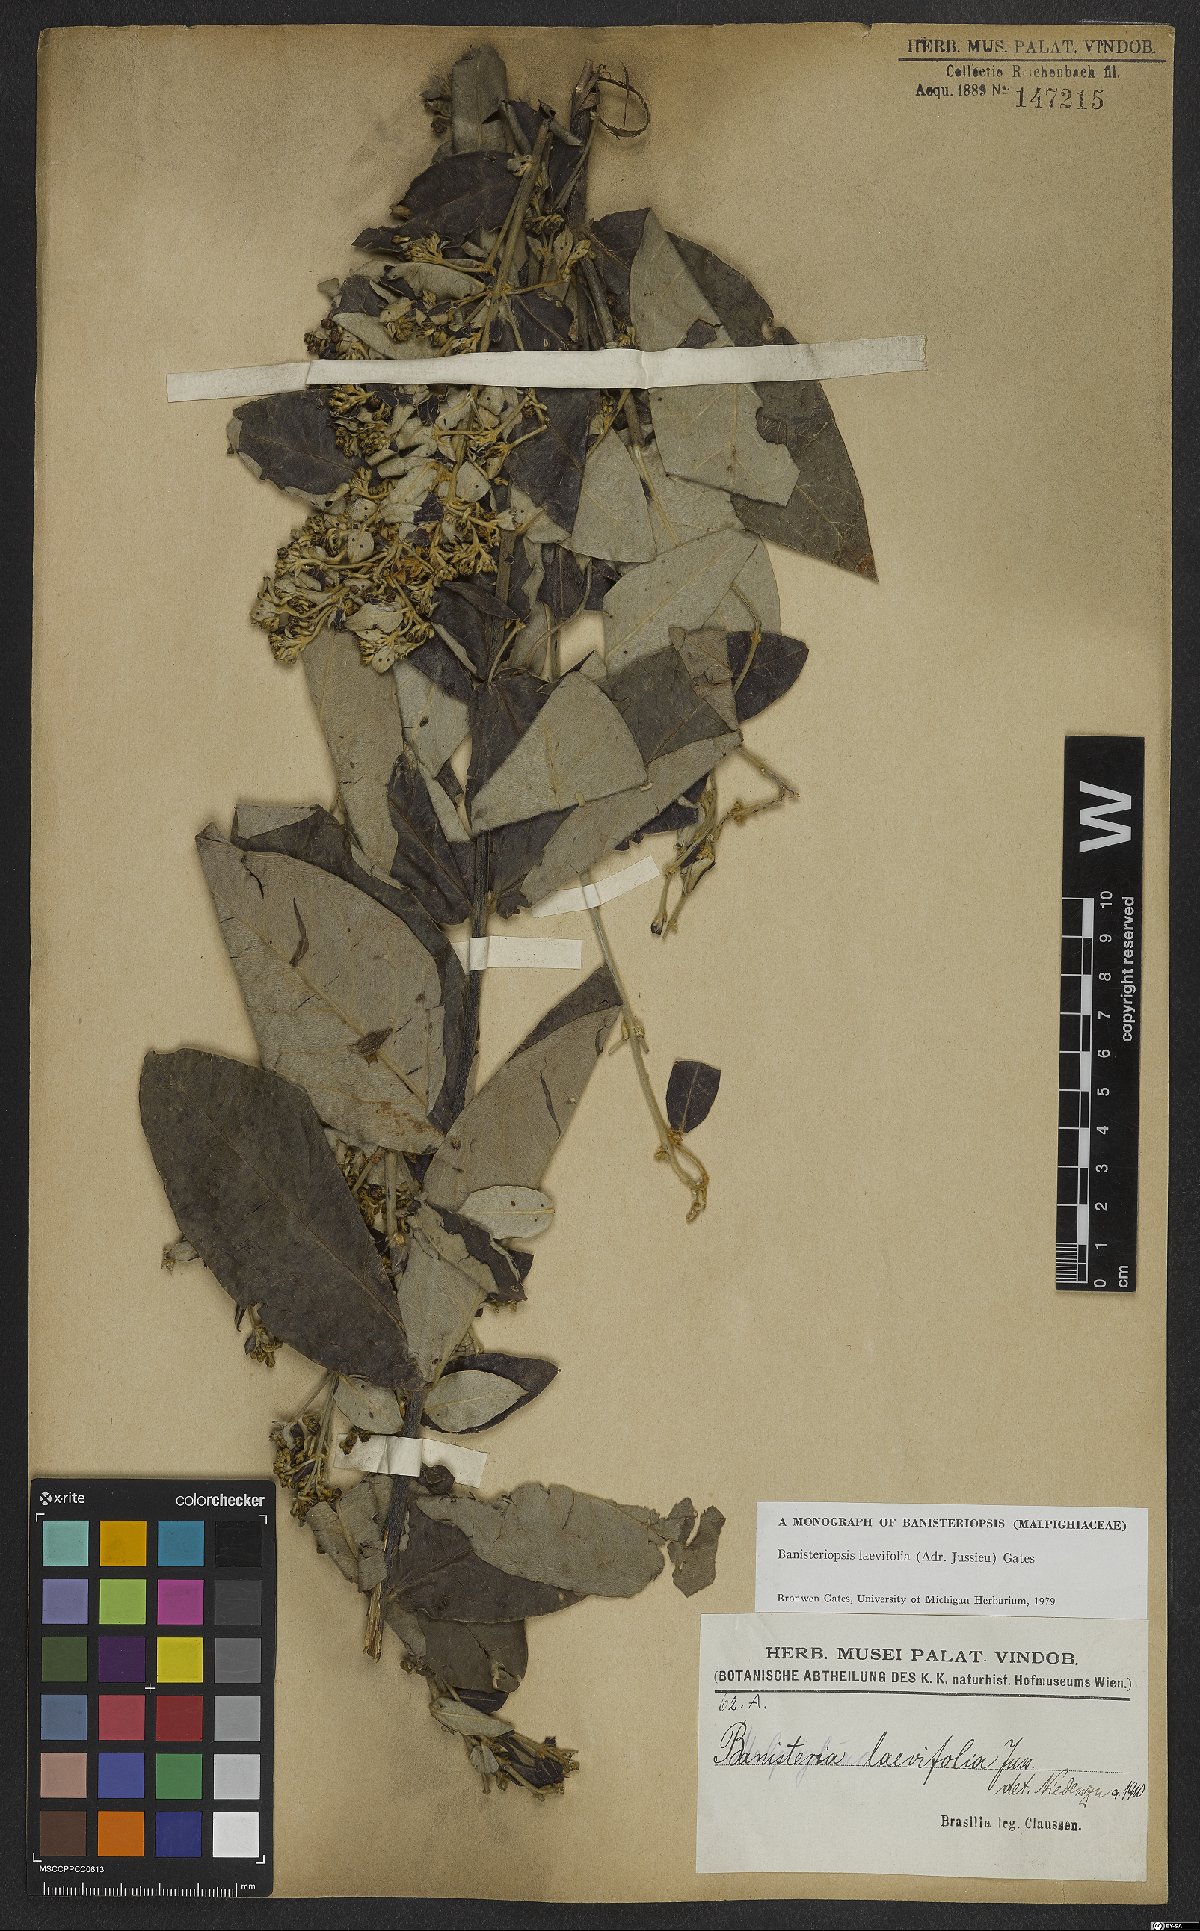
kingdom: Plantae
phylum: Tracheophyta
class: Magnoliopsida
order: Malpighiales
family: Malpighiaceae
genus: Banisteriopsis
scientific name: Banisteriopsis laevifolia
